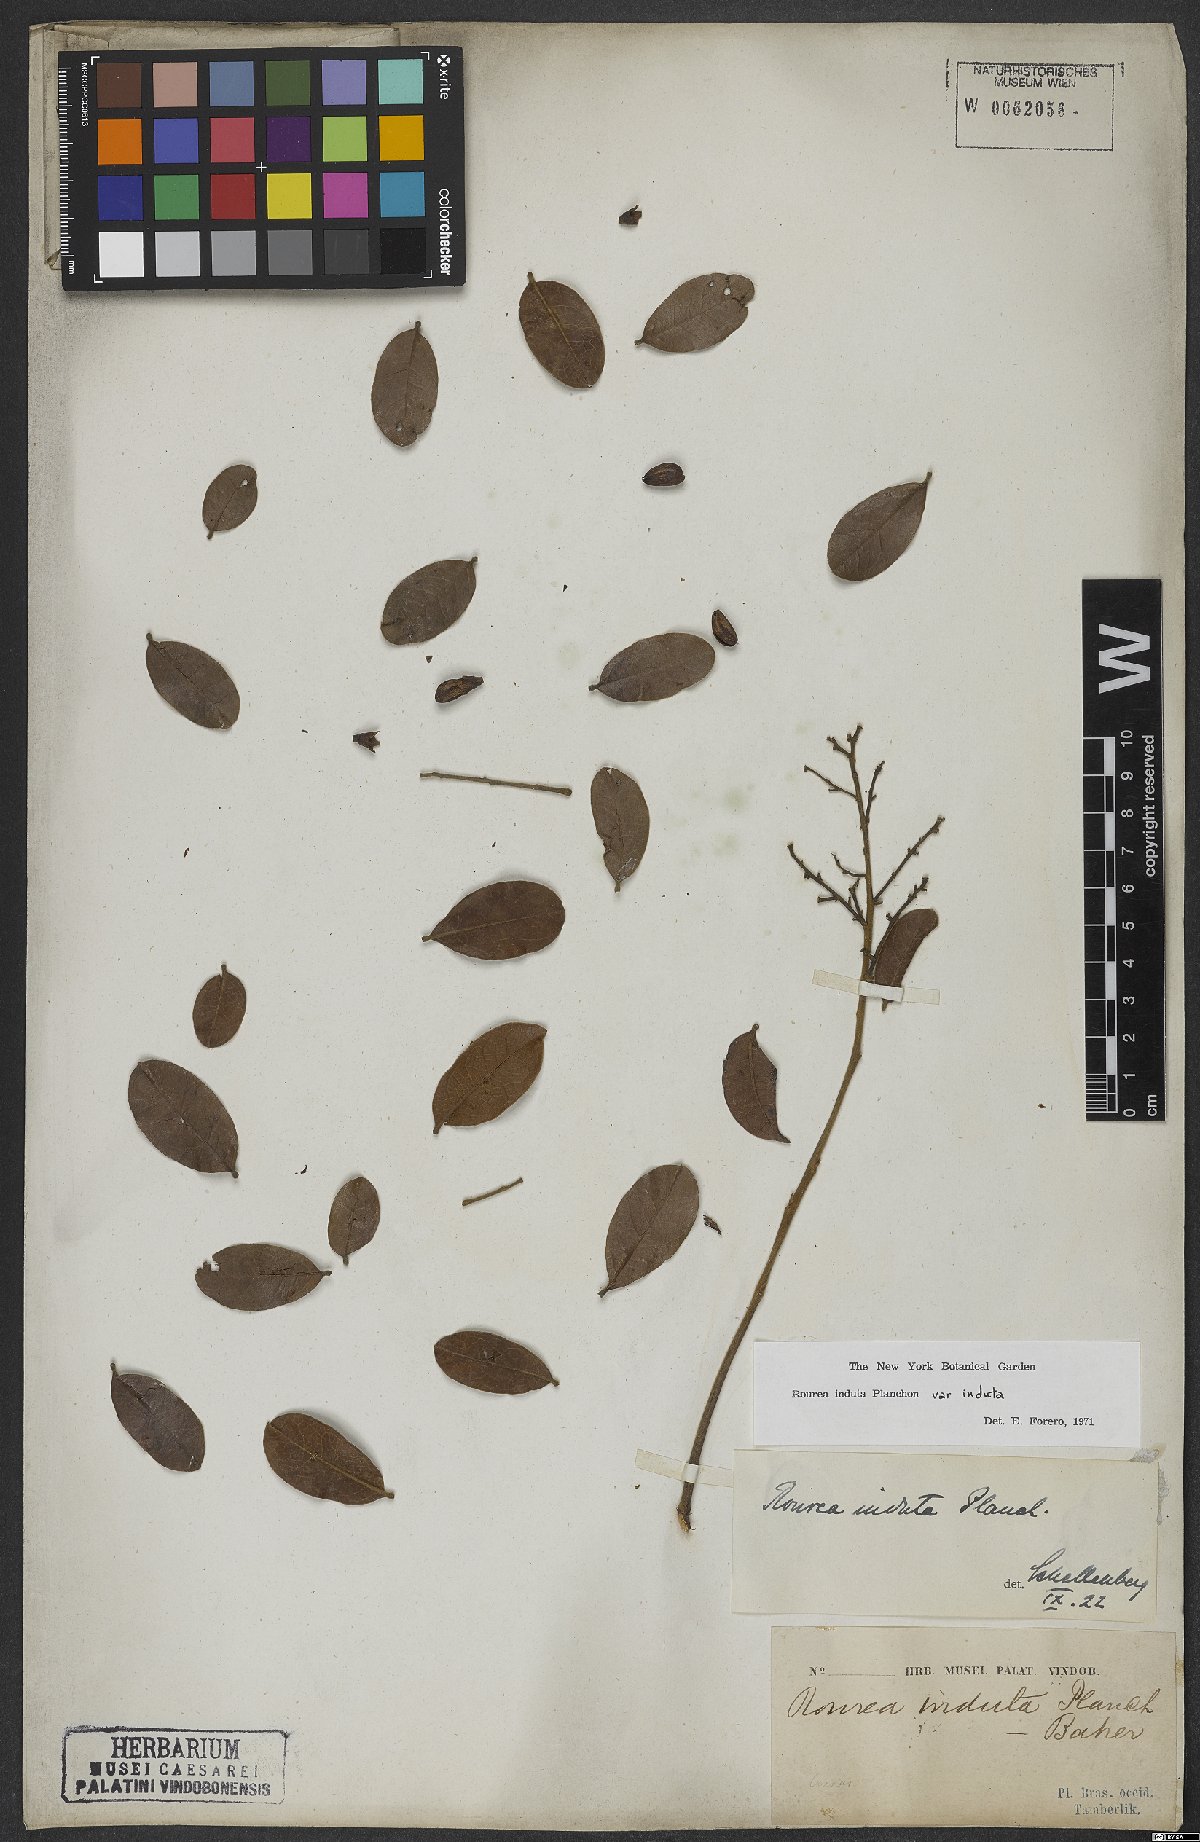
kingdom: Plantae
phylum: Tracheophyta
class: Magnoliopsida
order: Oxalidales
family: Connaraceae
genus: Rourea
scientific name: Rourea induta
